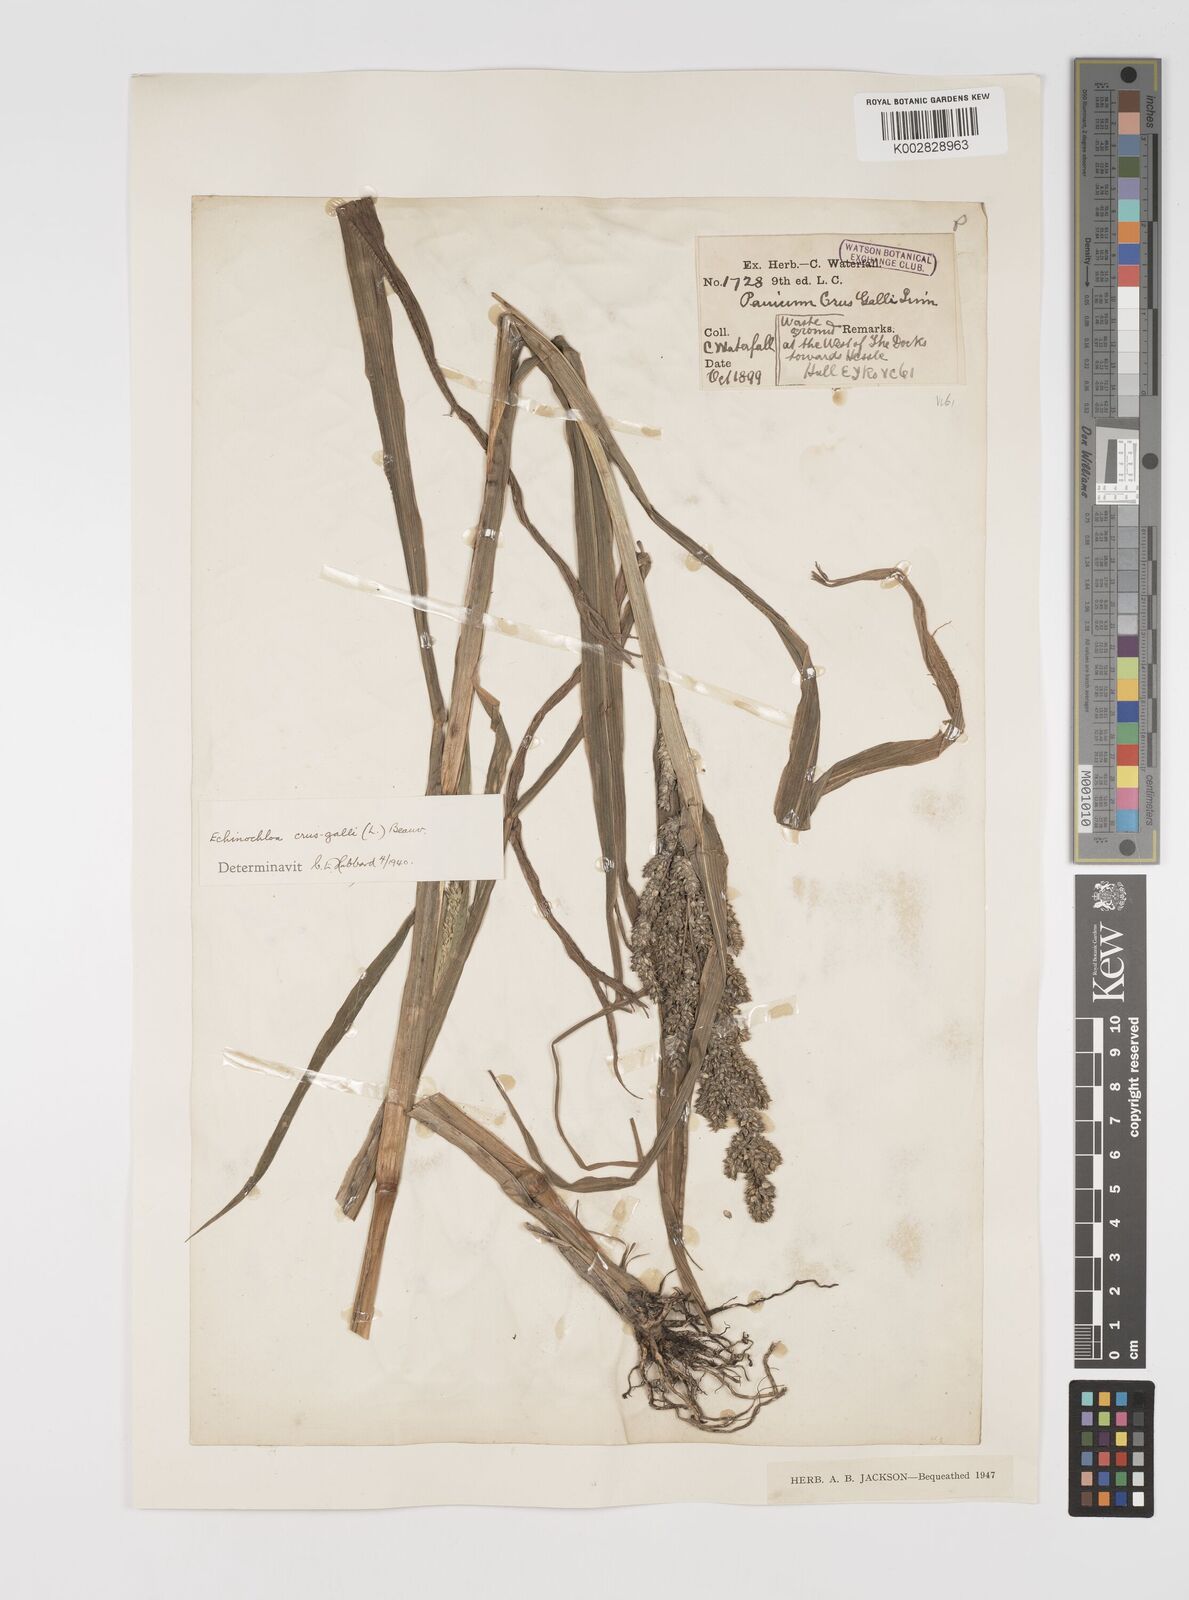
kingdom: Plantae
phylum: Tracheophyta
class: Liliopsida
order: Poales
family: Poaceae
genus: Echinochloa
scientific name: Echinochloa crus-galli
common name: Cockspur
